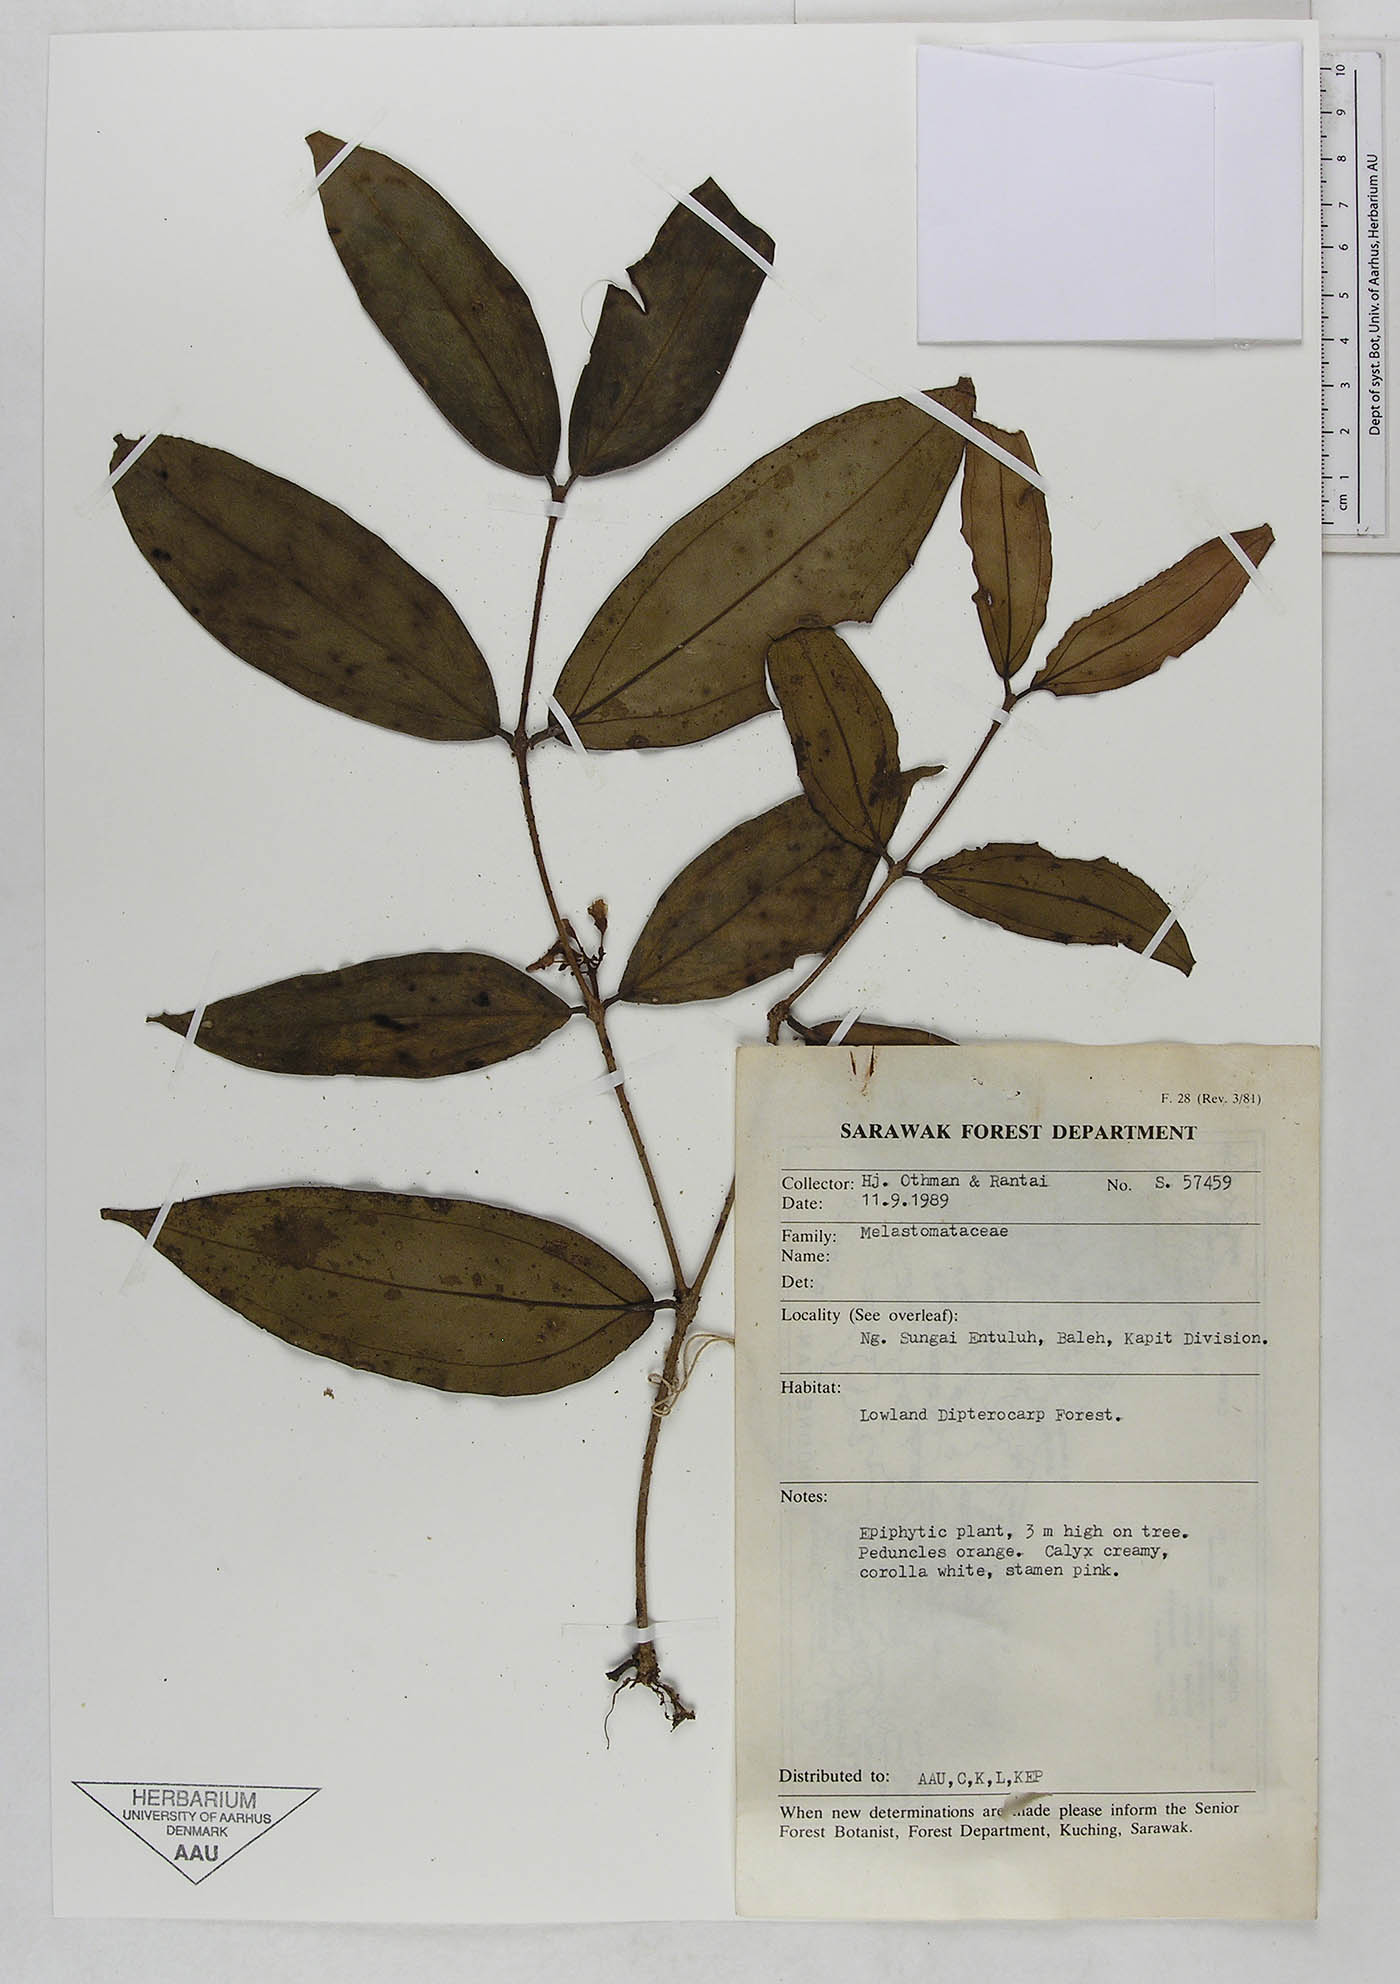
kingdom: Plantae
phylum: Tracheophyta
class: Magnoliopsida
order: Myrtales
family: Melastomataceae
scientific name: Melastomataceae
